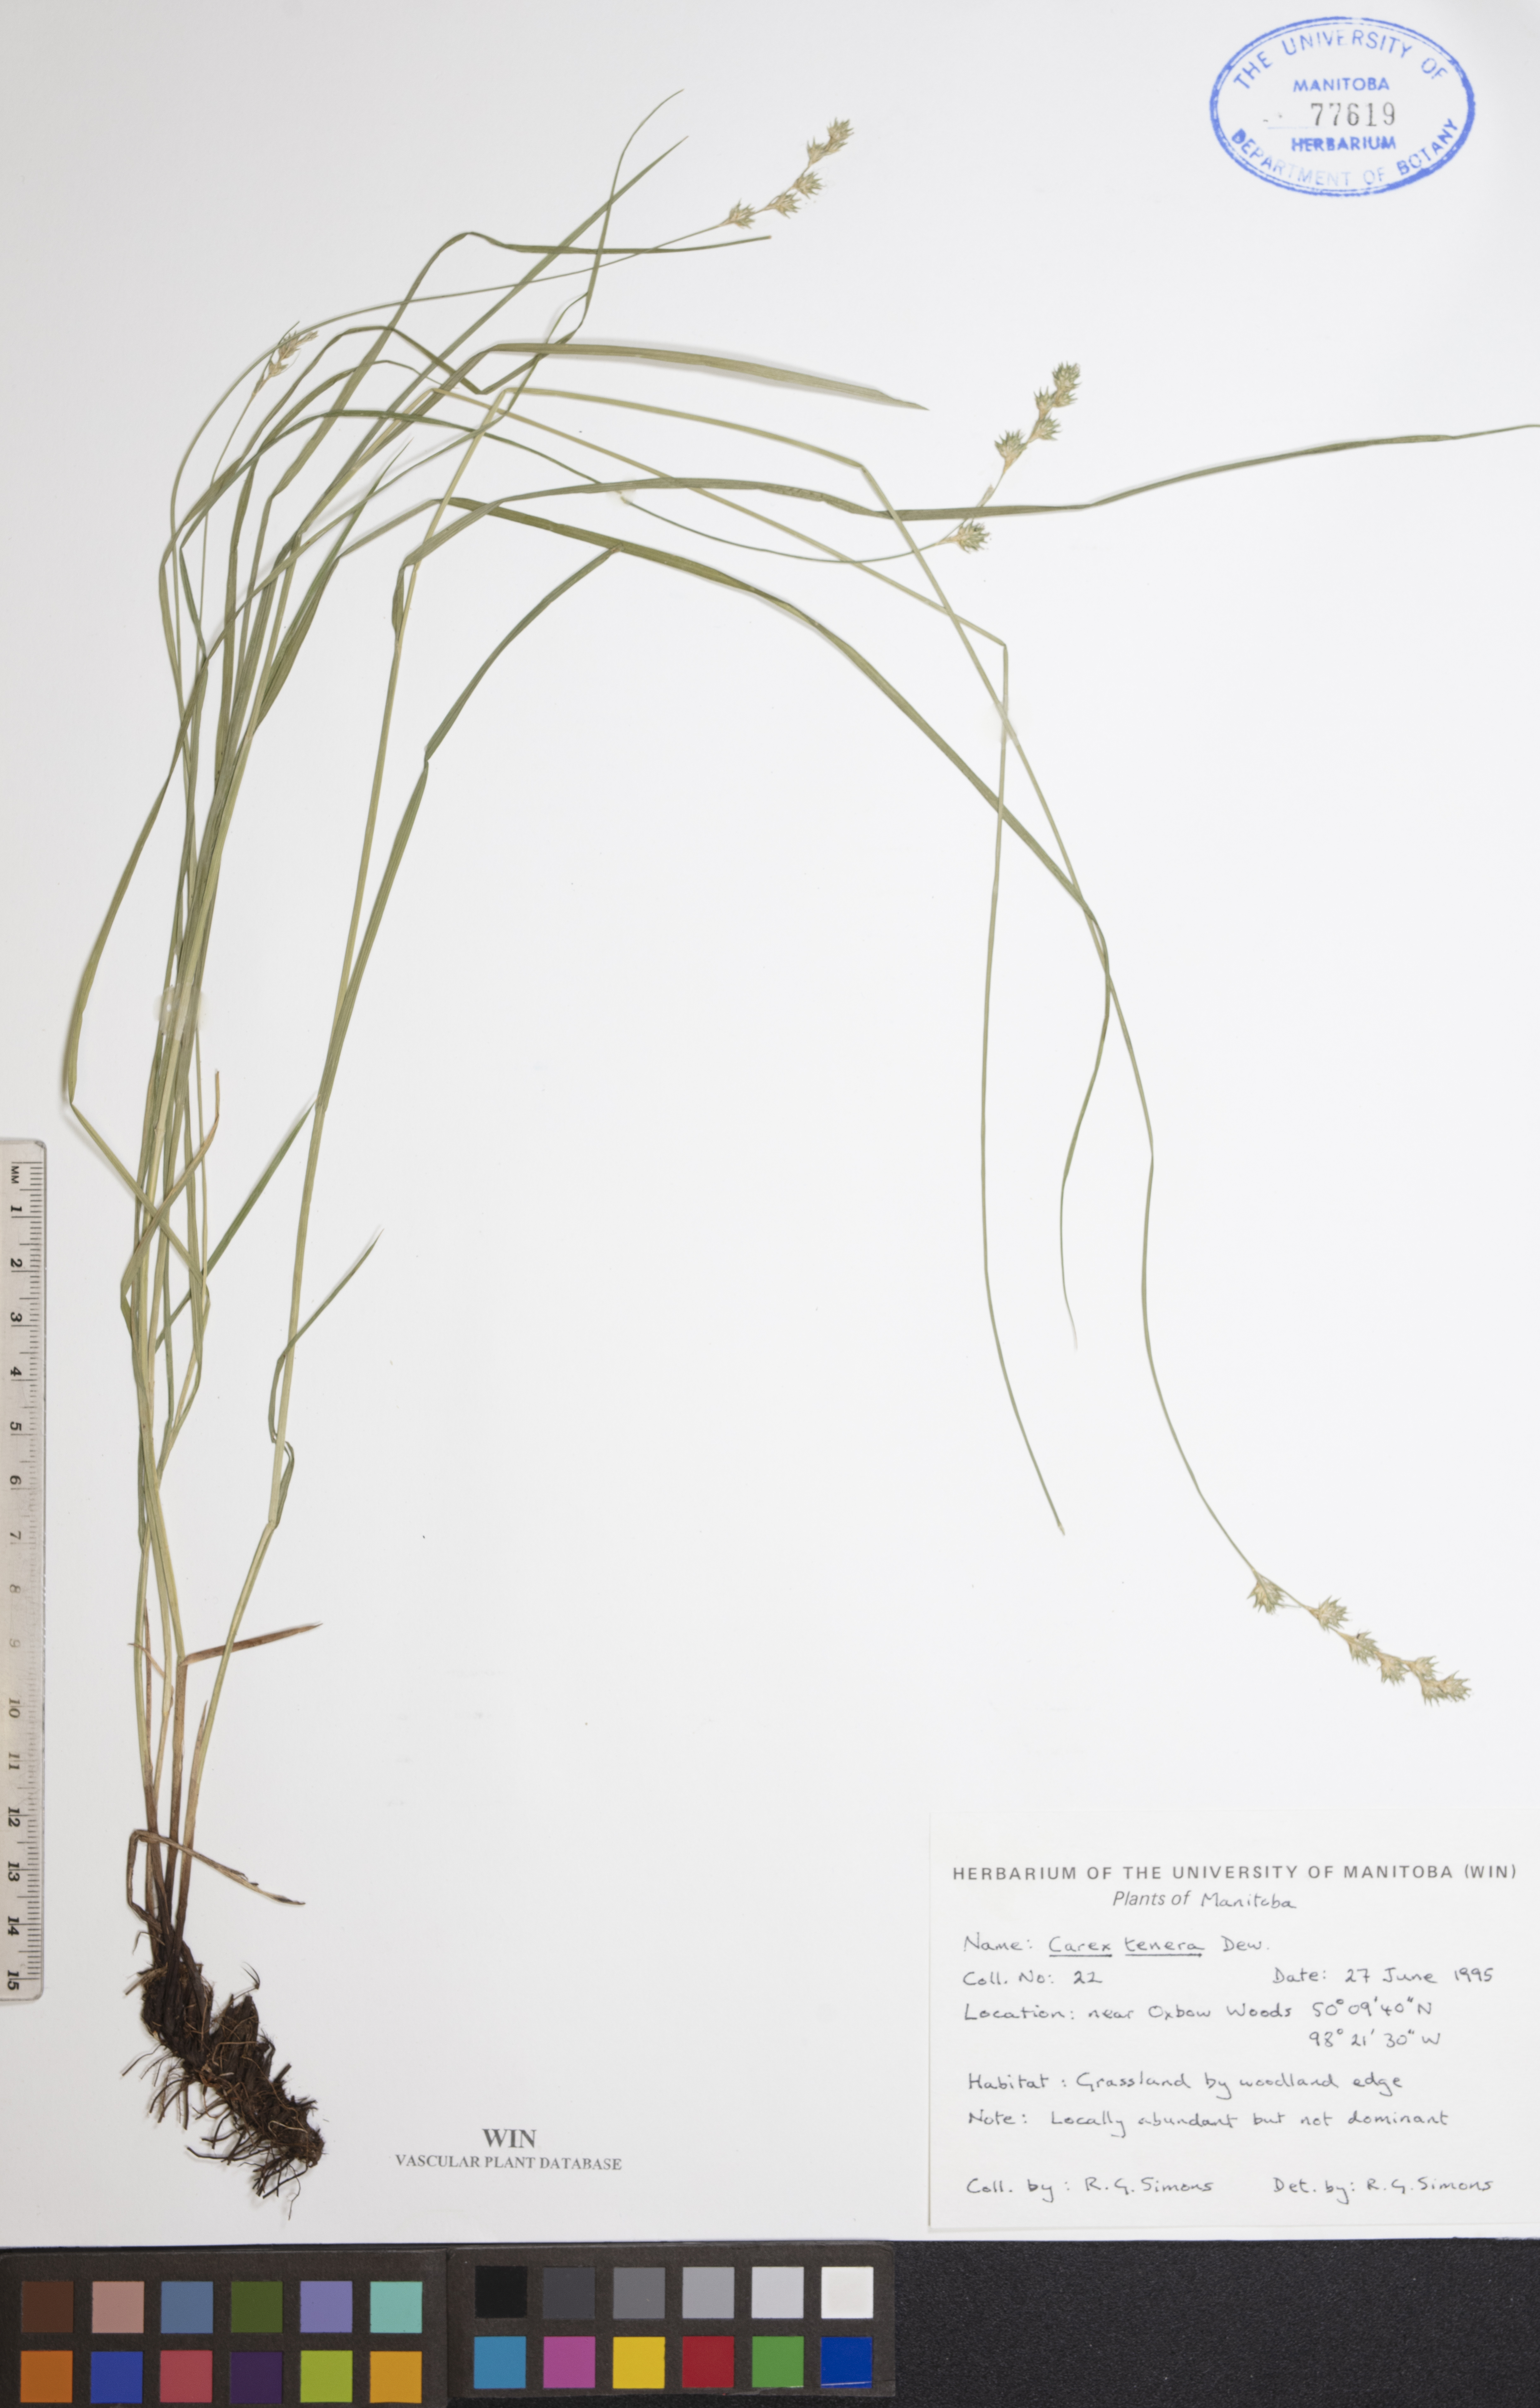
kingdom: Plantae
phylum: Tracheophyta
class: Liliopsida
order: Poales
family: Cyperaceae
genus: Carex
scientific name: Carex tenera
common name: Broad-fruited sedge
